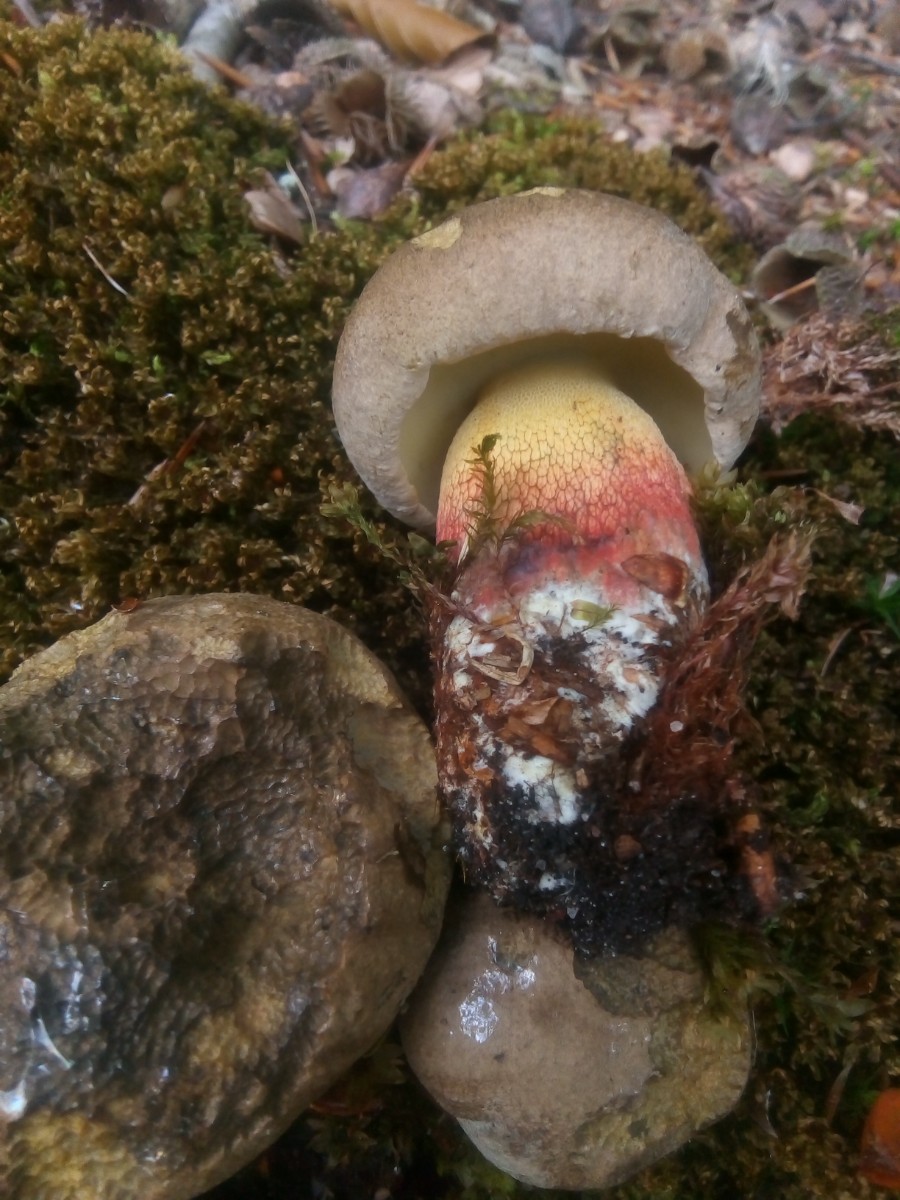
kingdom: Fungi
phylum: Basidiomycota
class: Agaricomycetes
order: Boletales
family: Boletaceae
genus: Caloboletus
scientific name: Caloboletus calopus
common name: skønfodet rørhat
